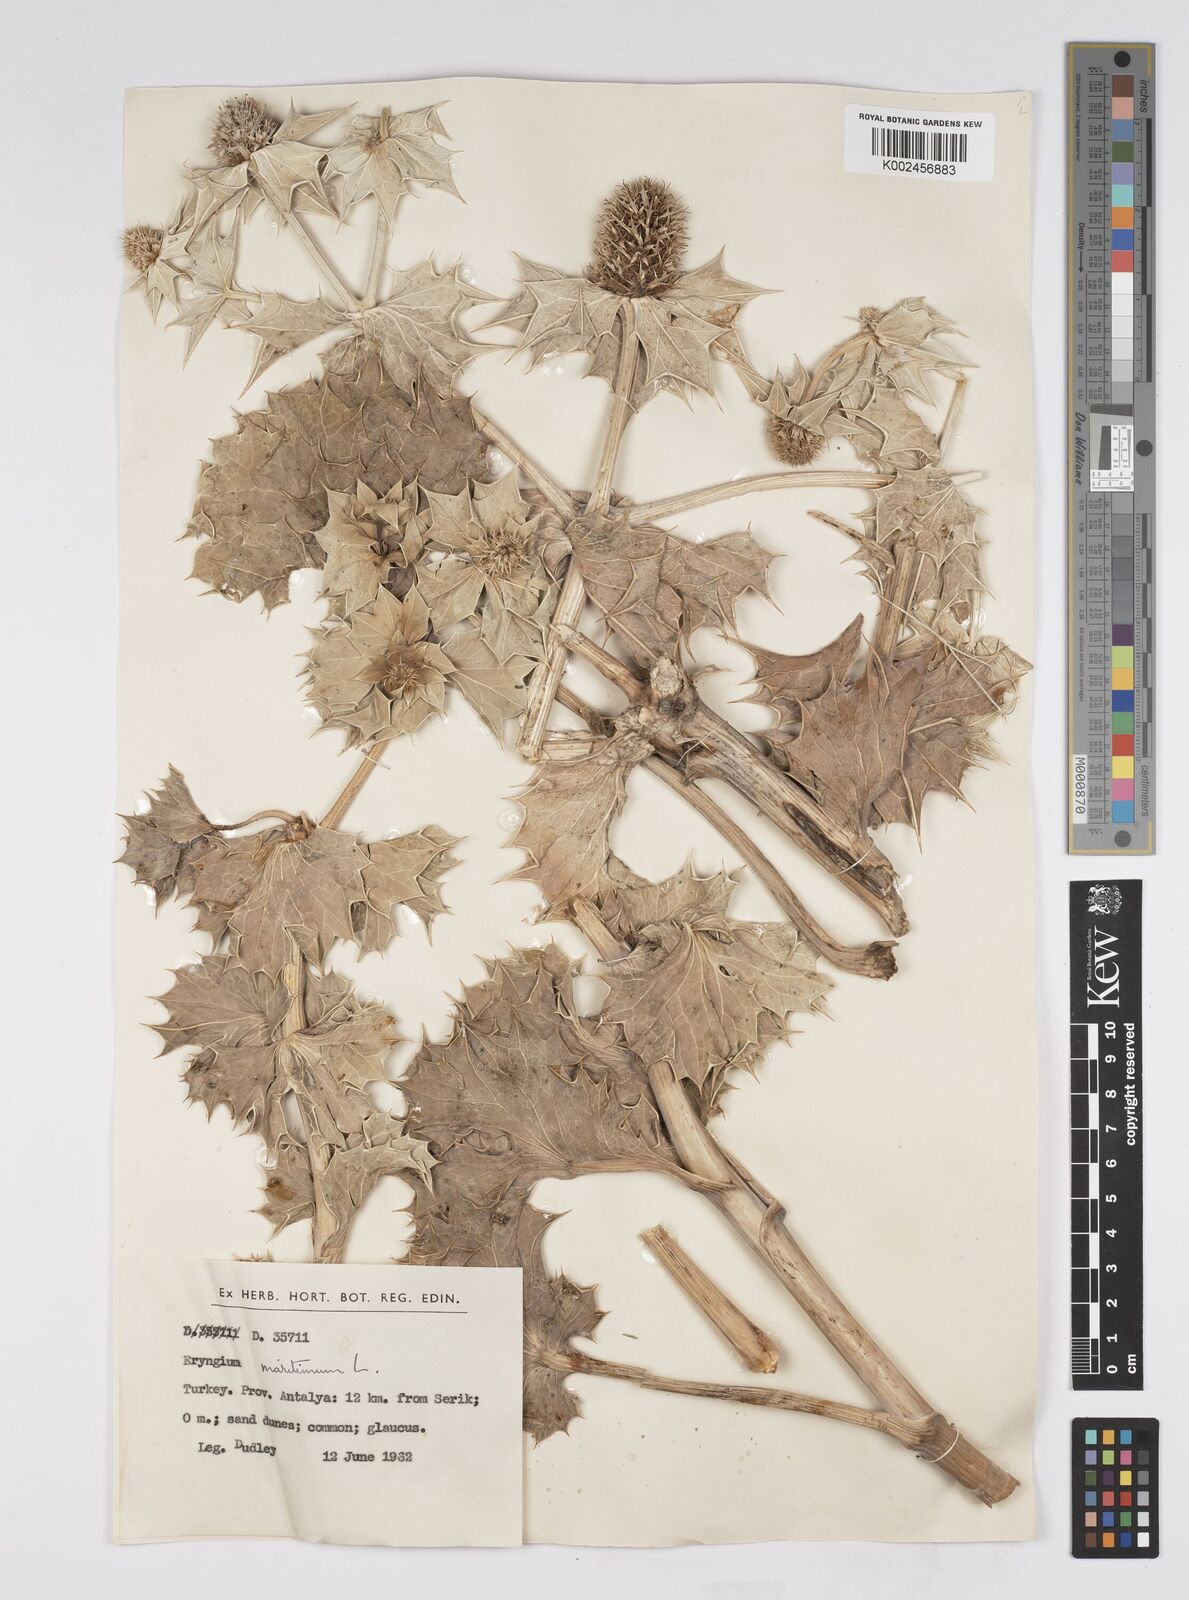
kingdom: Plantae
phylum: Tracheophyta
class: Magnoliopsida
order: Apiales
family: Apiaceae
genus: Eryngium
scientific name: Eryngium maritimum
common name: Sea-holly
